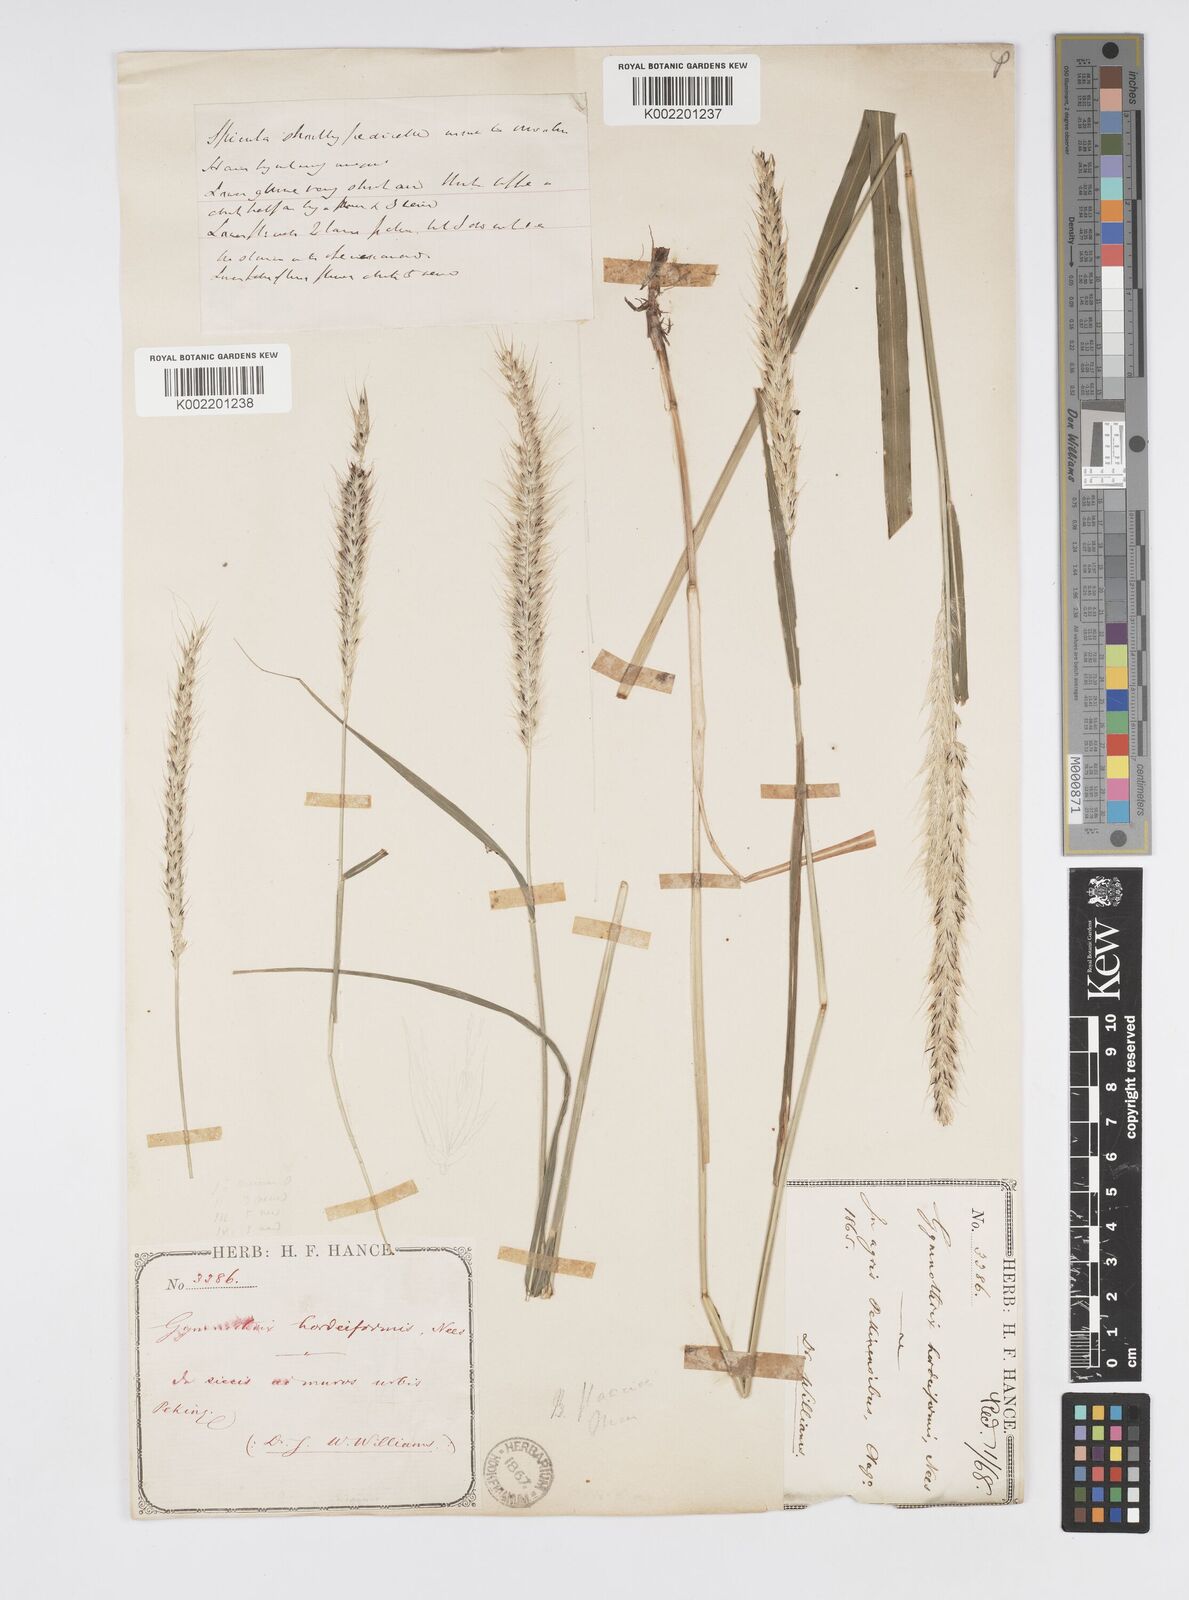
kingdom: Plantae
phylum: Tracheophyta
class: Liliopsida
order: Poales
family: Poaceae
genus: Cenchrus
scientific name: Cenchrus flaccidus
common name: Flaccid grass
